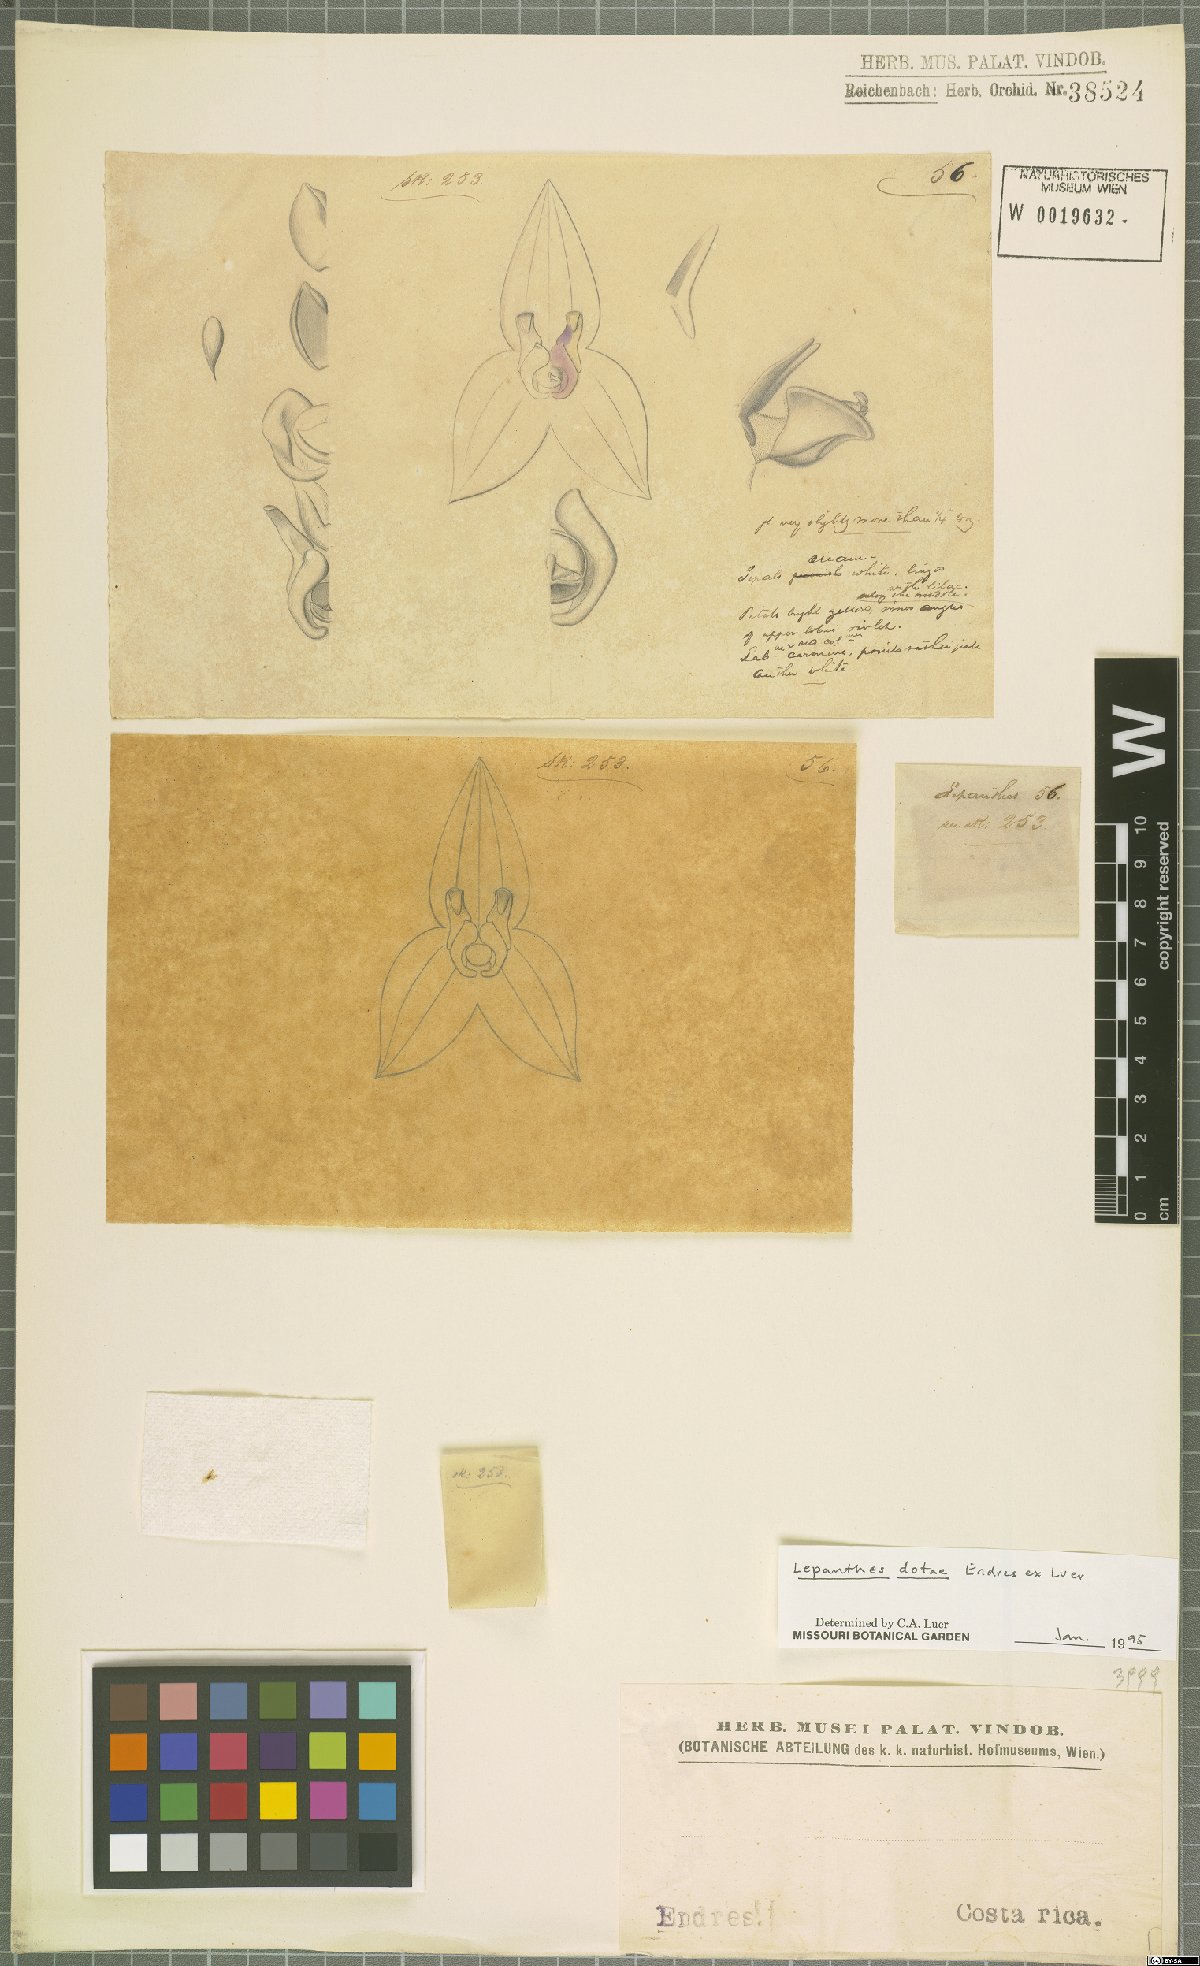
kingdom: Plantae
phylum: Tracheophyta
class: Liliopsida
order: Asparagales
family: Orchidaceae
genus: Lepanthes
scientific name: Lepanthes dotae
